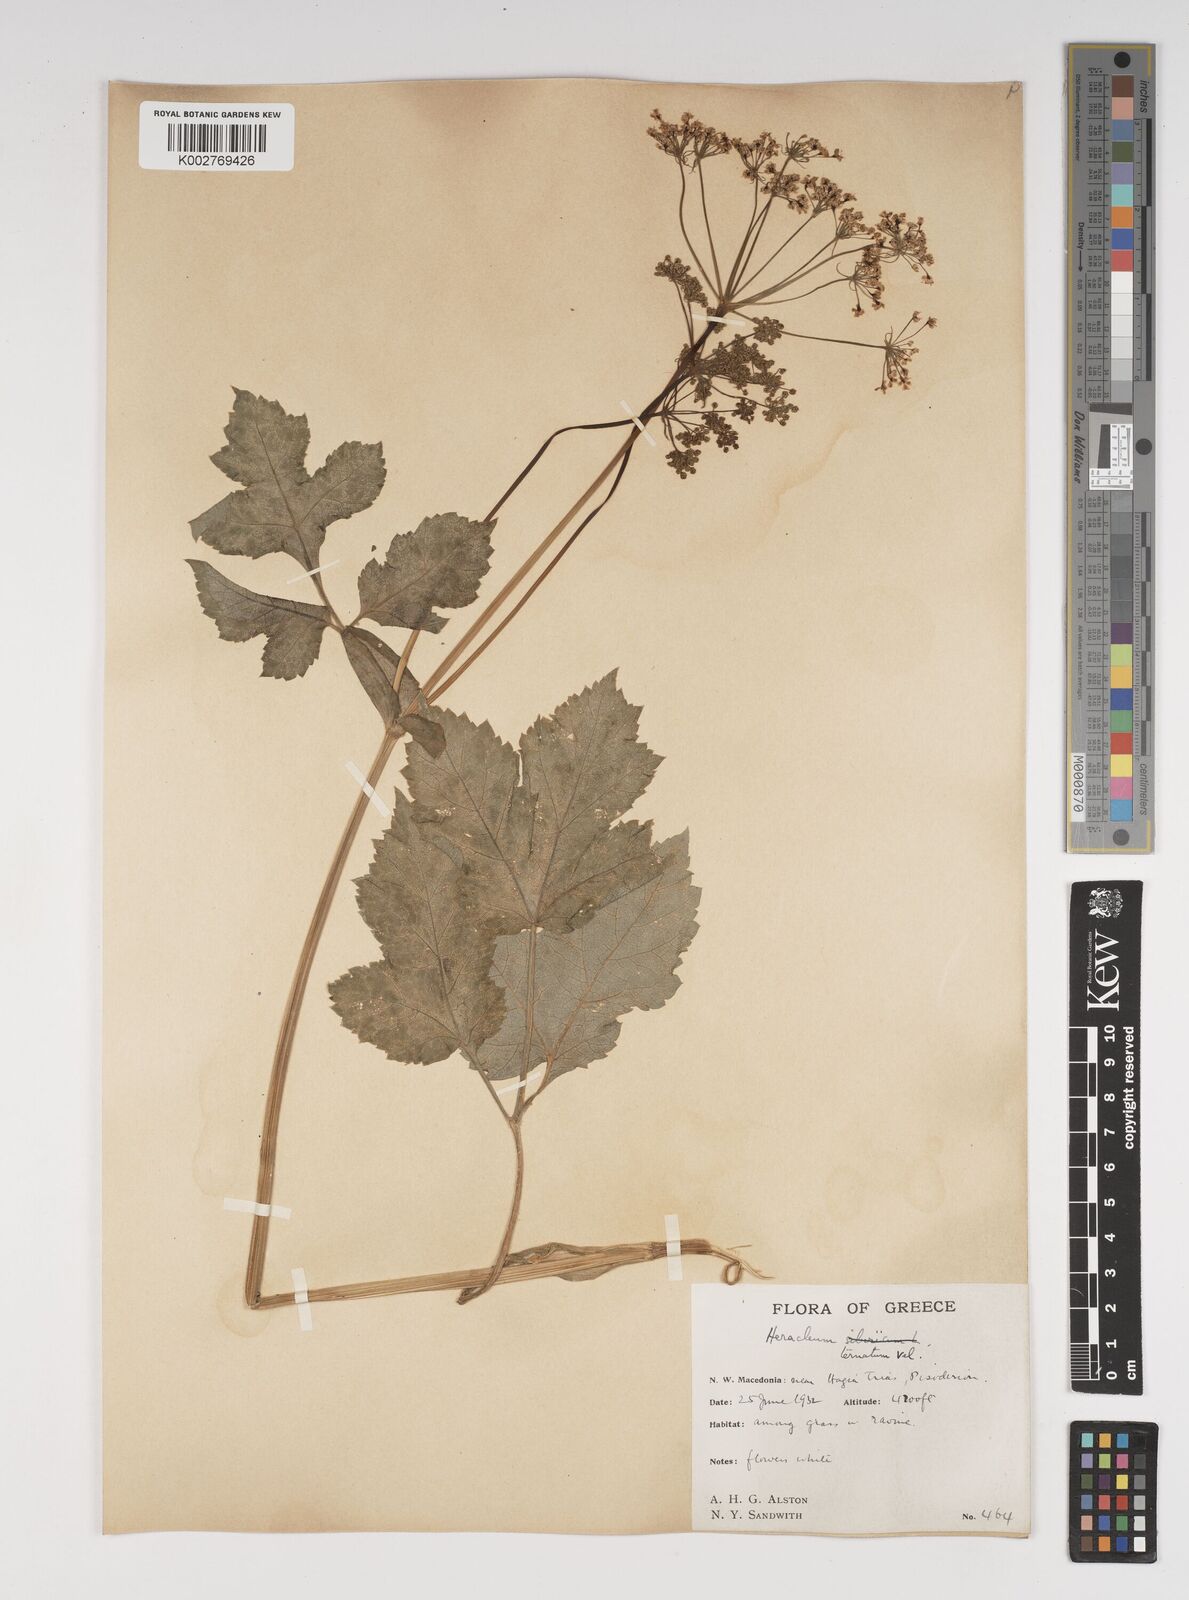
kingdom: Plantae
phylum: Tracheophyta
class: Magnoliopsida
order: Apiales
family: Apiaceae
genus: Heracleum
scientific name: Heracleum sphondylium
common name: Hogweed
